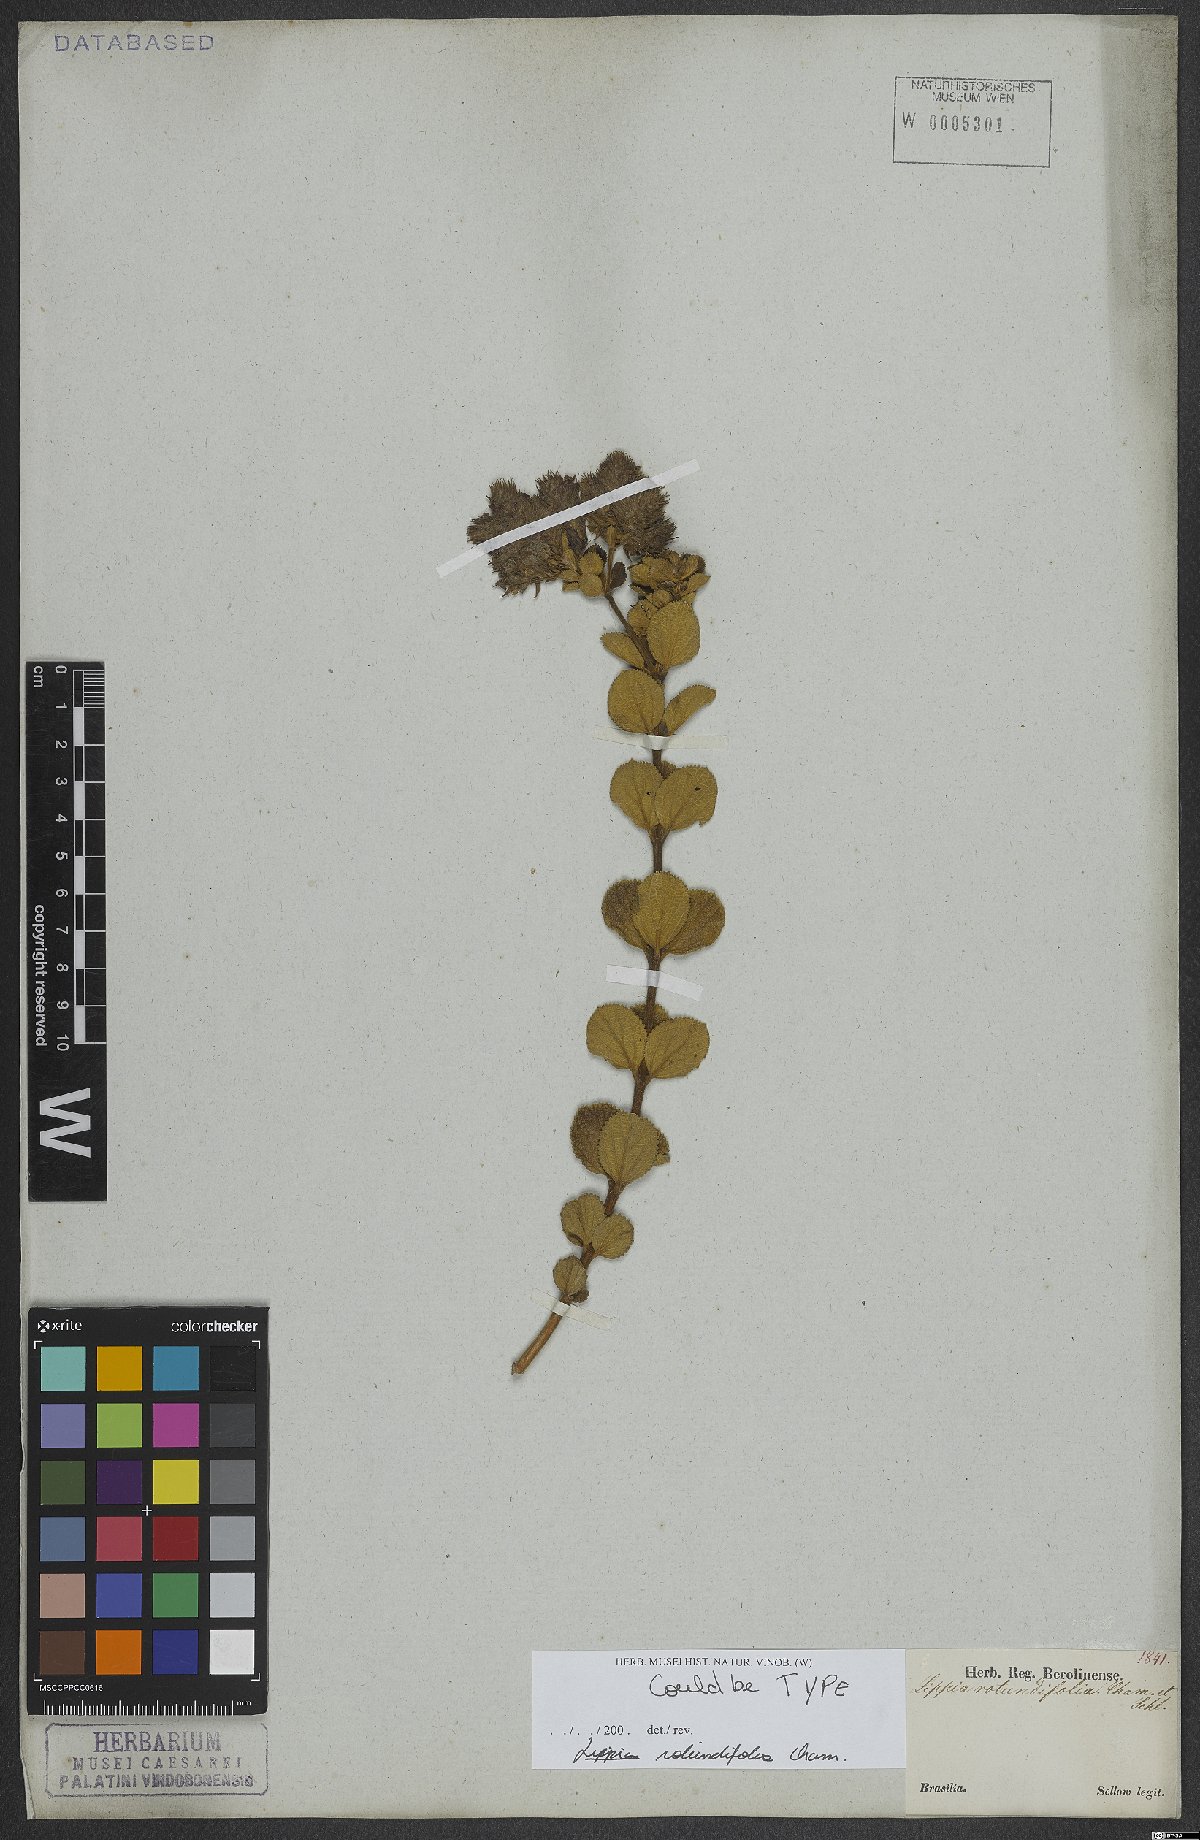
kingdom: Plantae
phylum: Tracheophyta
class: Magnoliopsida
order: Lamiales
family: Verbenaceae
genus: Lippia
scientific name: Lippia rotundifolia
